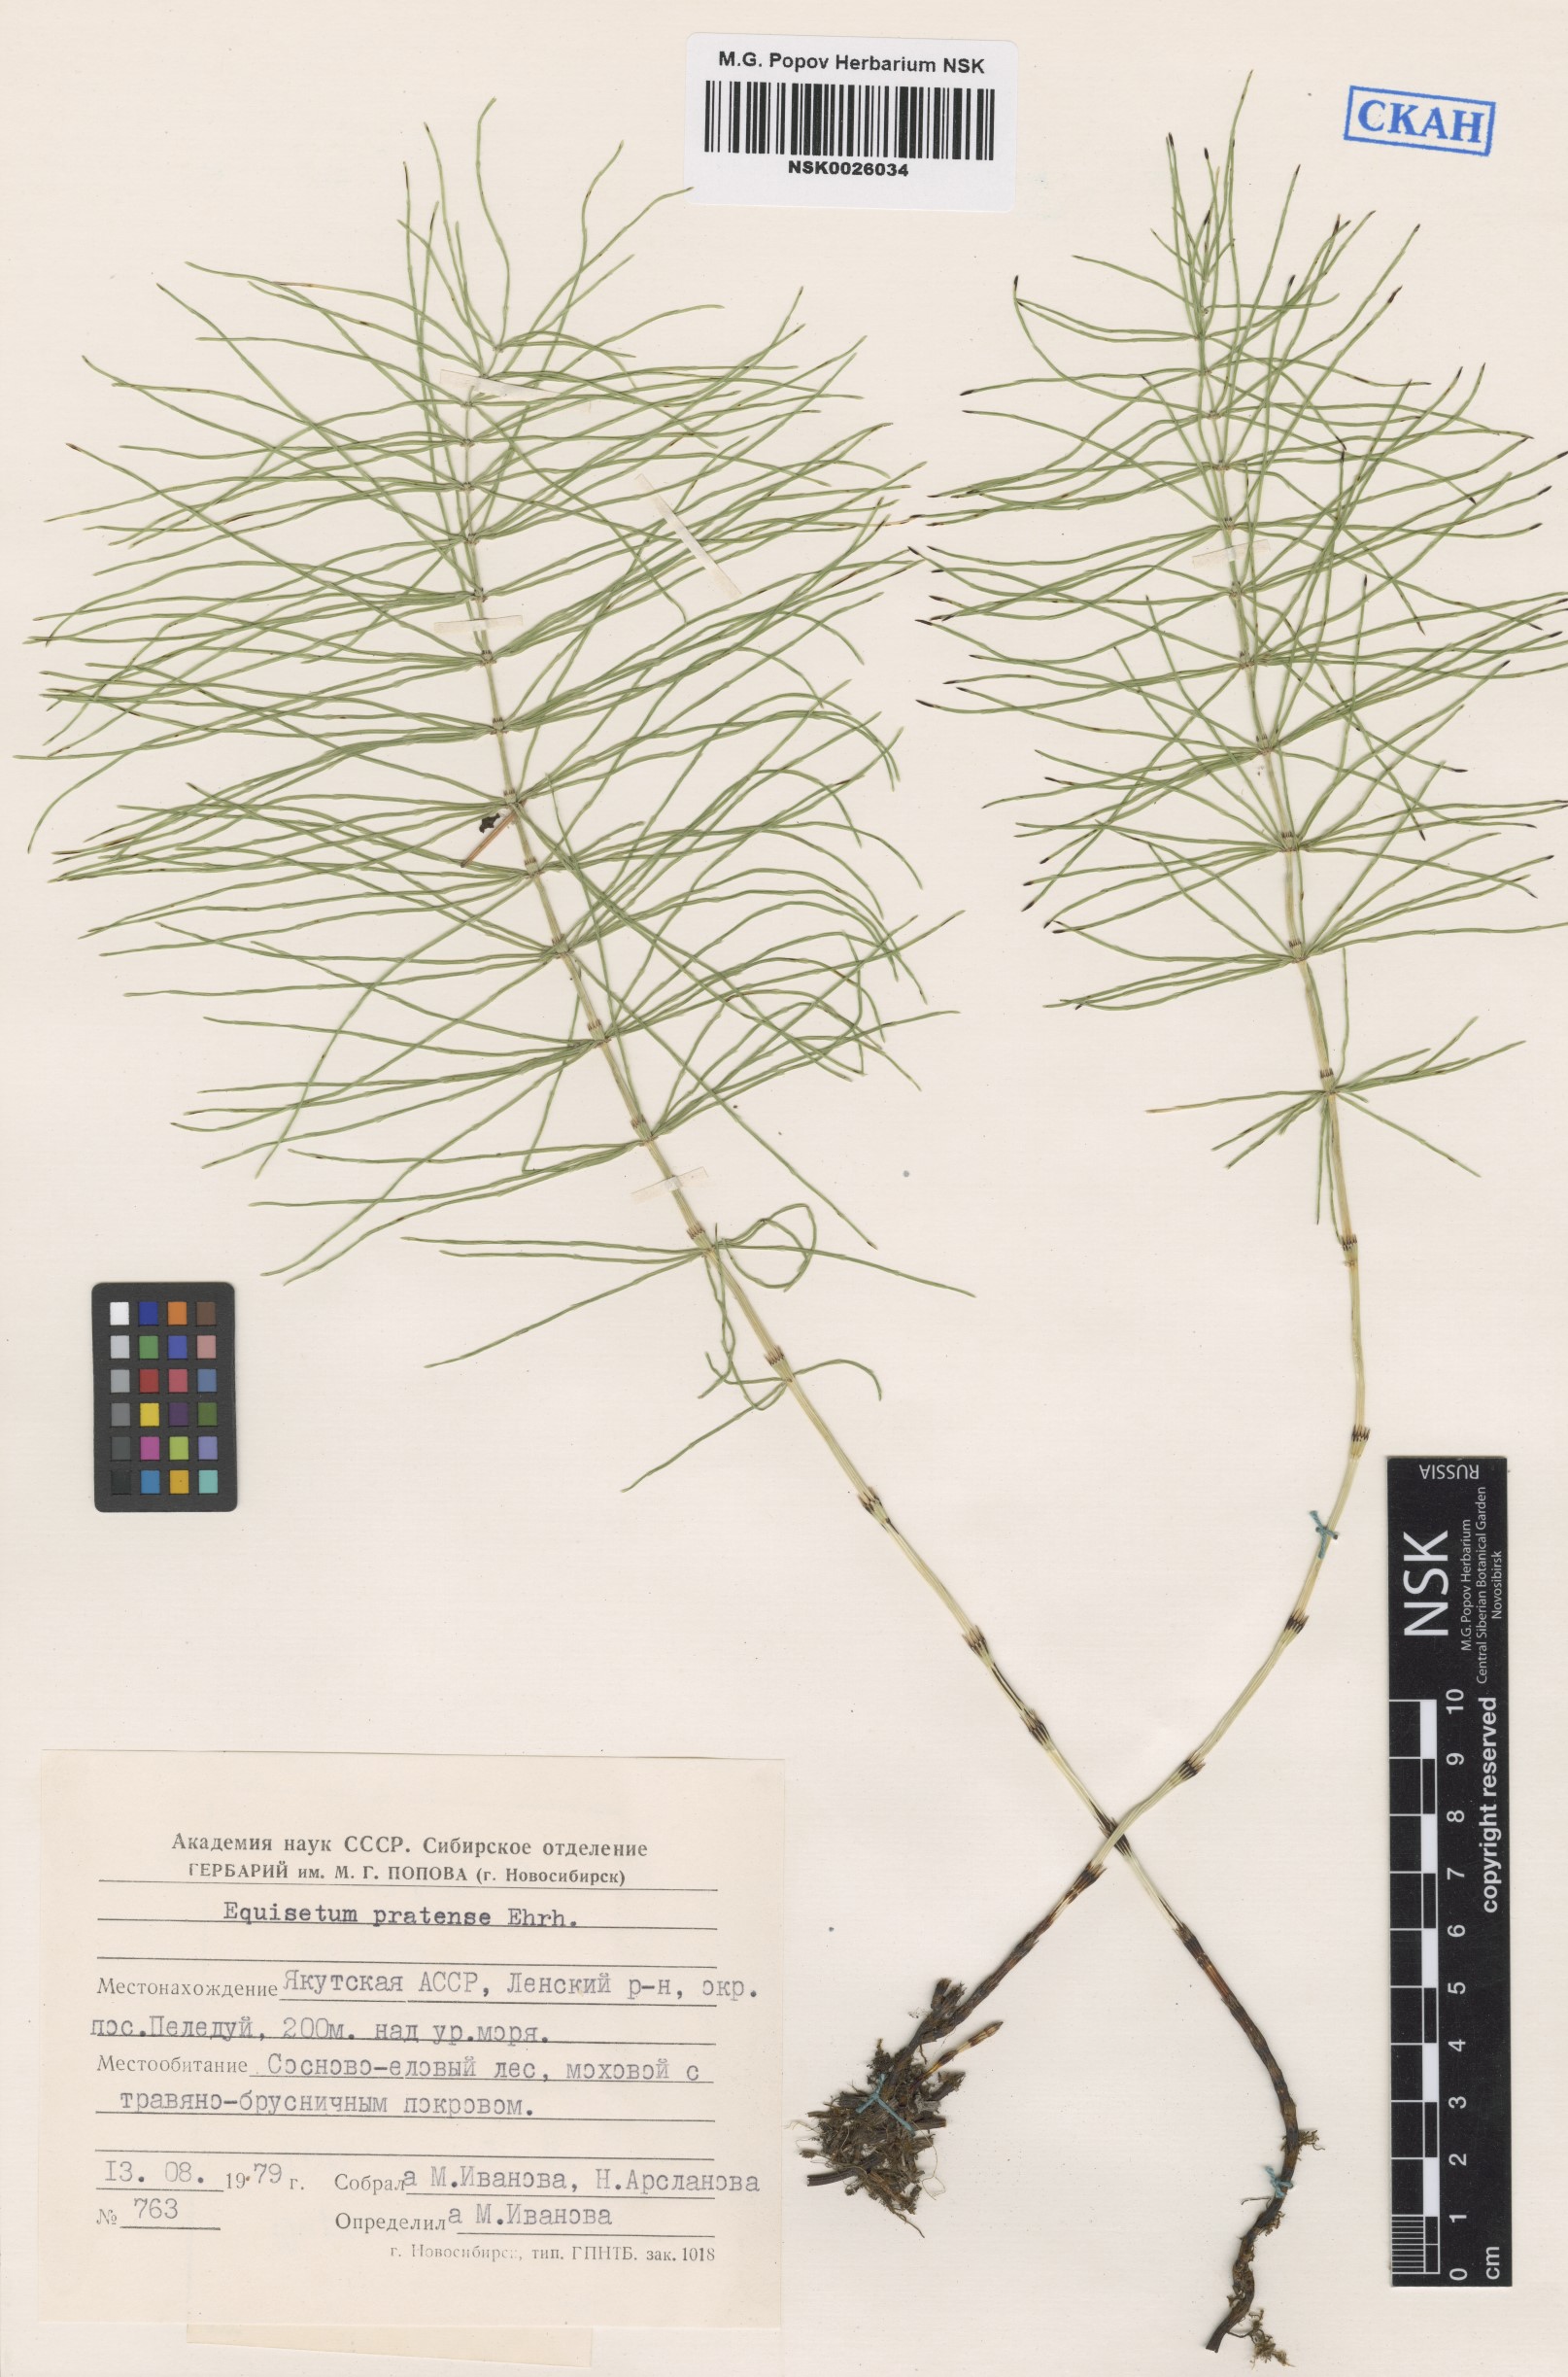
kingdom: Plantae
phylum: Tracheophyta
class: Polypodiopsida
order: Equisetales
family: Equisetaceae
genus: Equisetum
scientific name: Equisetum pratense
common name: Meadow horsetail
